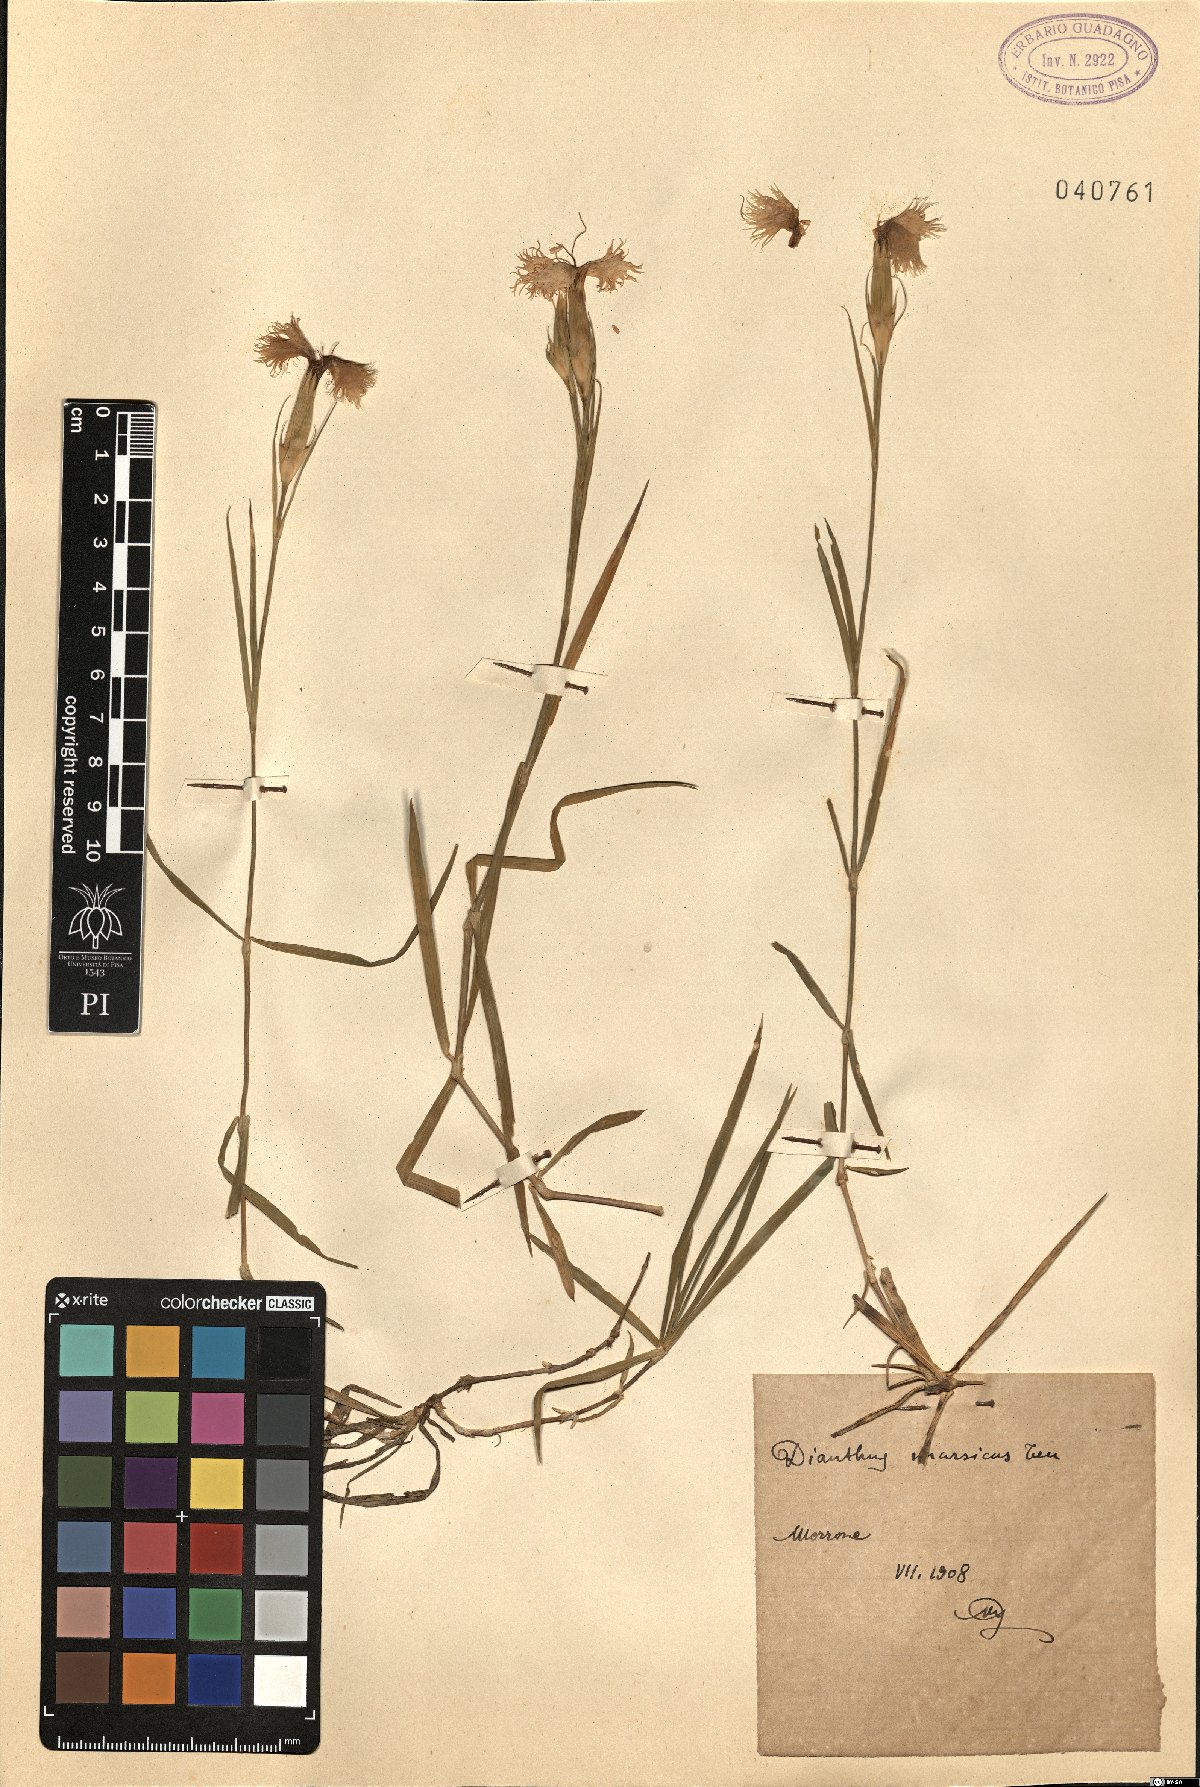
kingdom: Plantae
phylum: Tracheophyta
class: Magnoliopsida
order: Caryophyllales
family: Caryophyllaceae
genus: Dianthus
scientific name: Dianthus sternbergii
